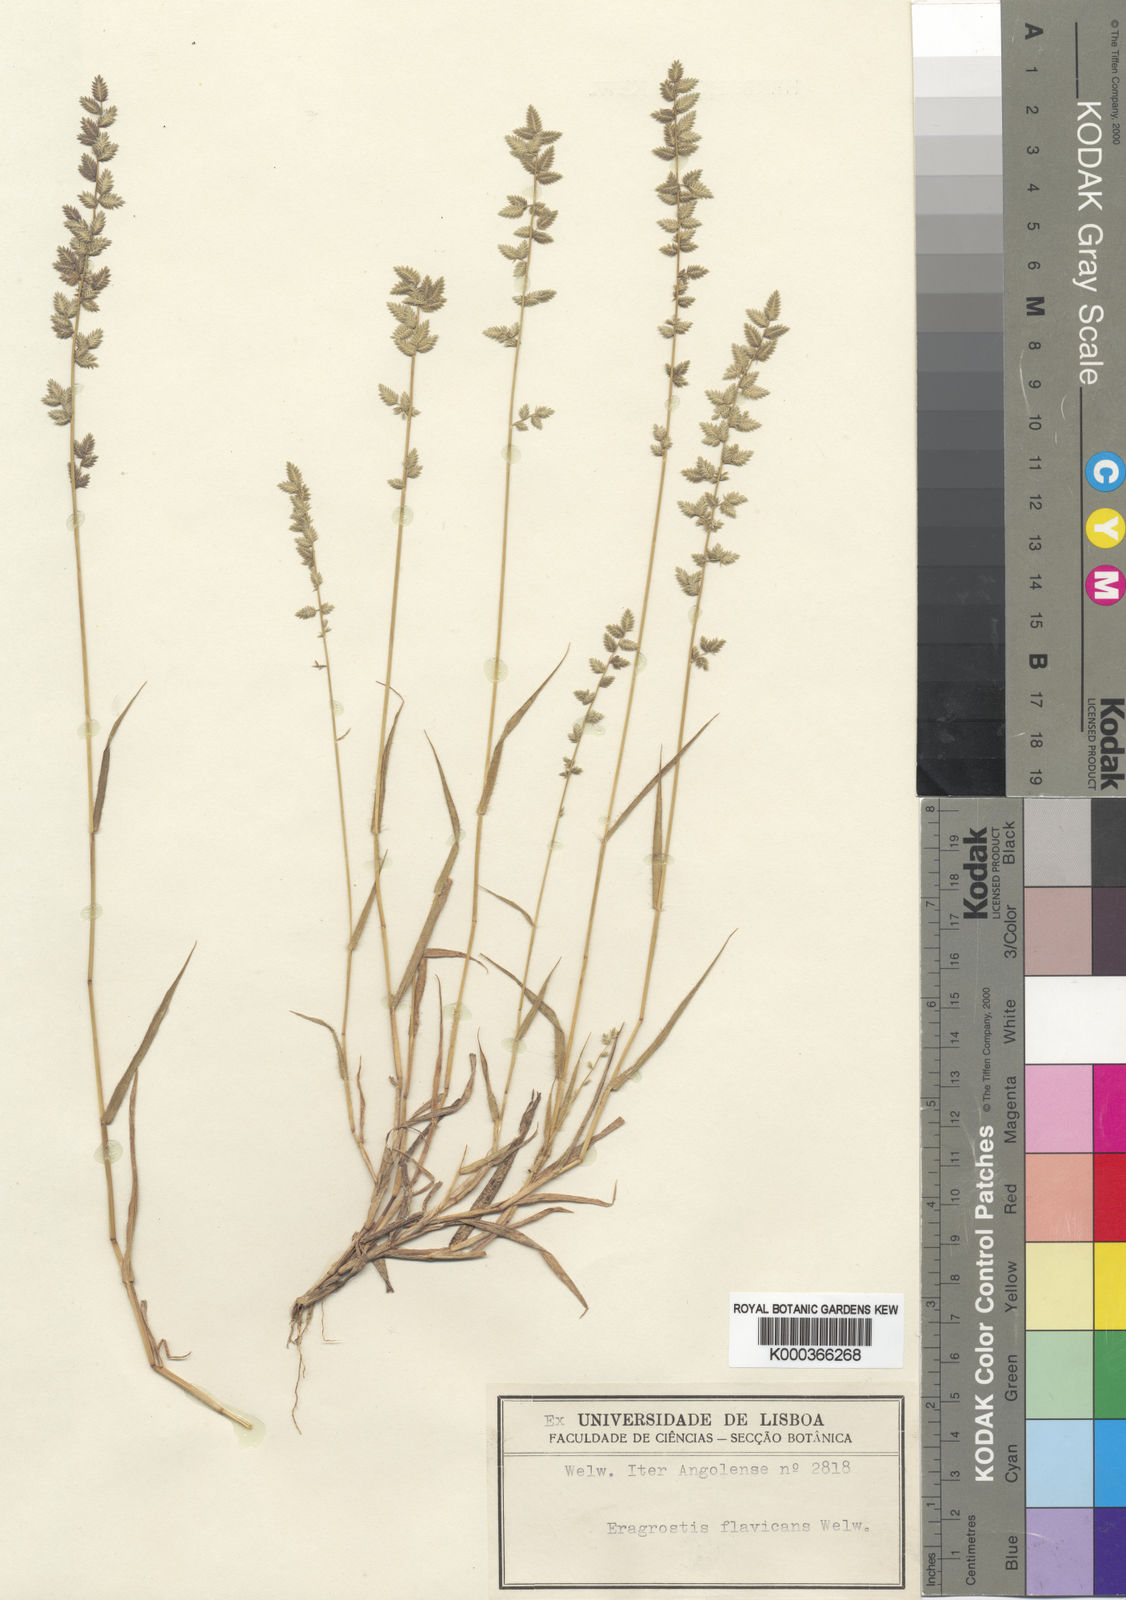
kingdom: Plantae
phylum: Tracheophyta
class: Liliopsida
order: Poales
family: Poaceae
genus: Eragrostis
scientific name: Eragrostis flavicans
